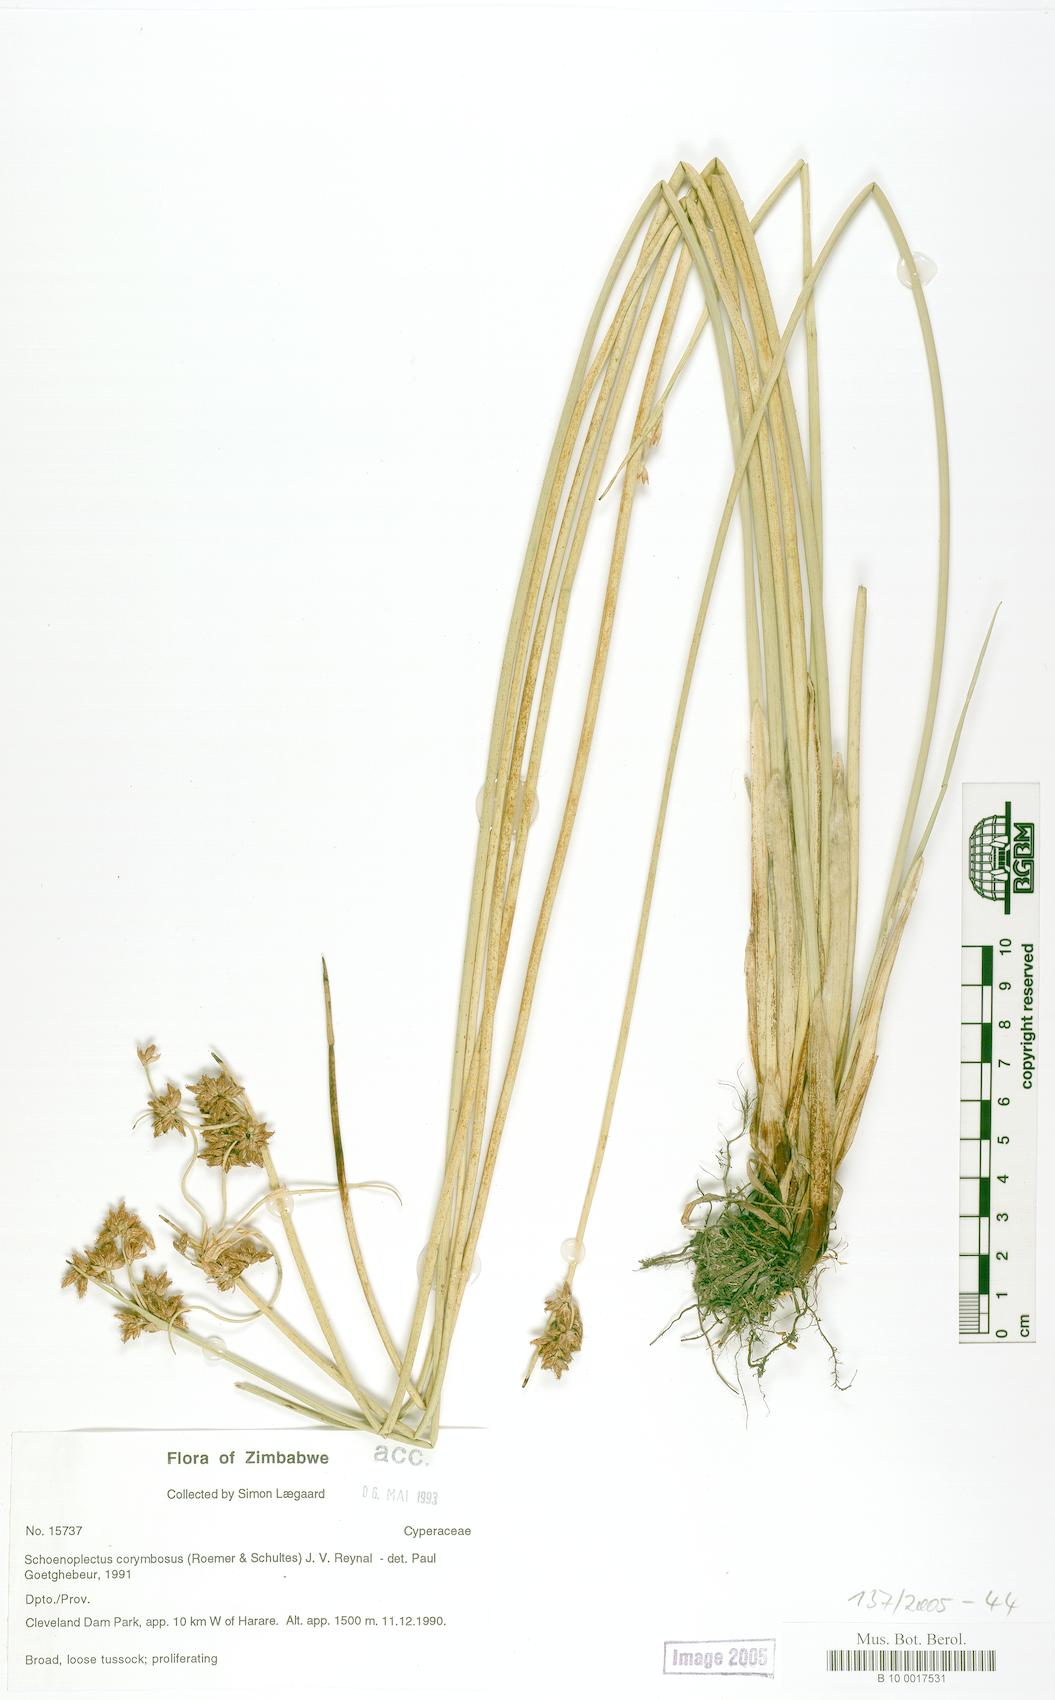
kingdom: Plantae
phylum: Tracheophyta
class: Liliopsida
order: Poales
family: Cyperaceae
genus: Schoenoplectiella
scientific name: Schoenoplectiella corymbosa
